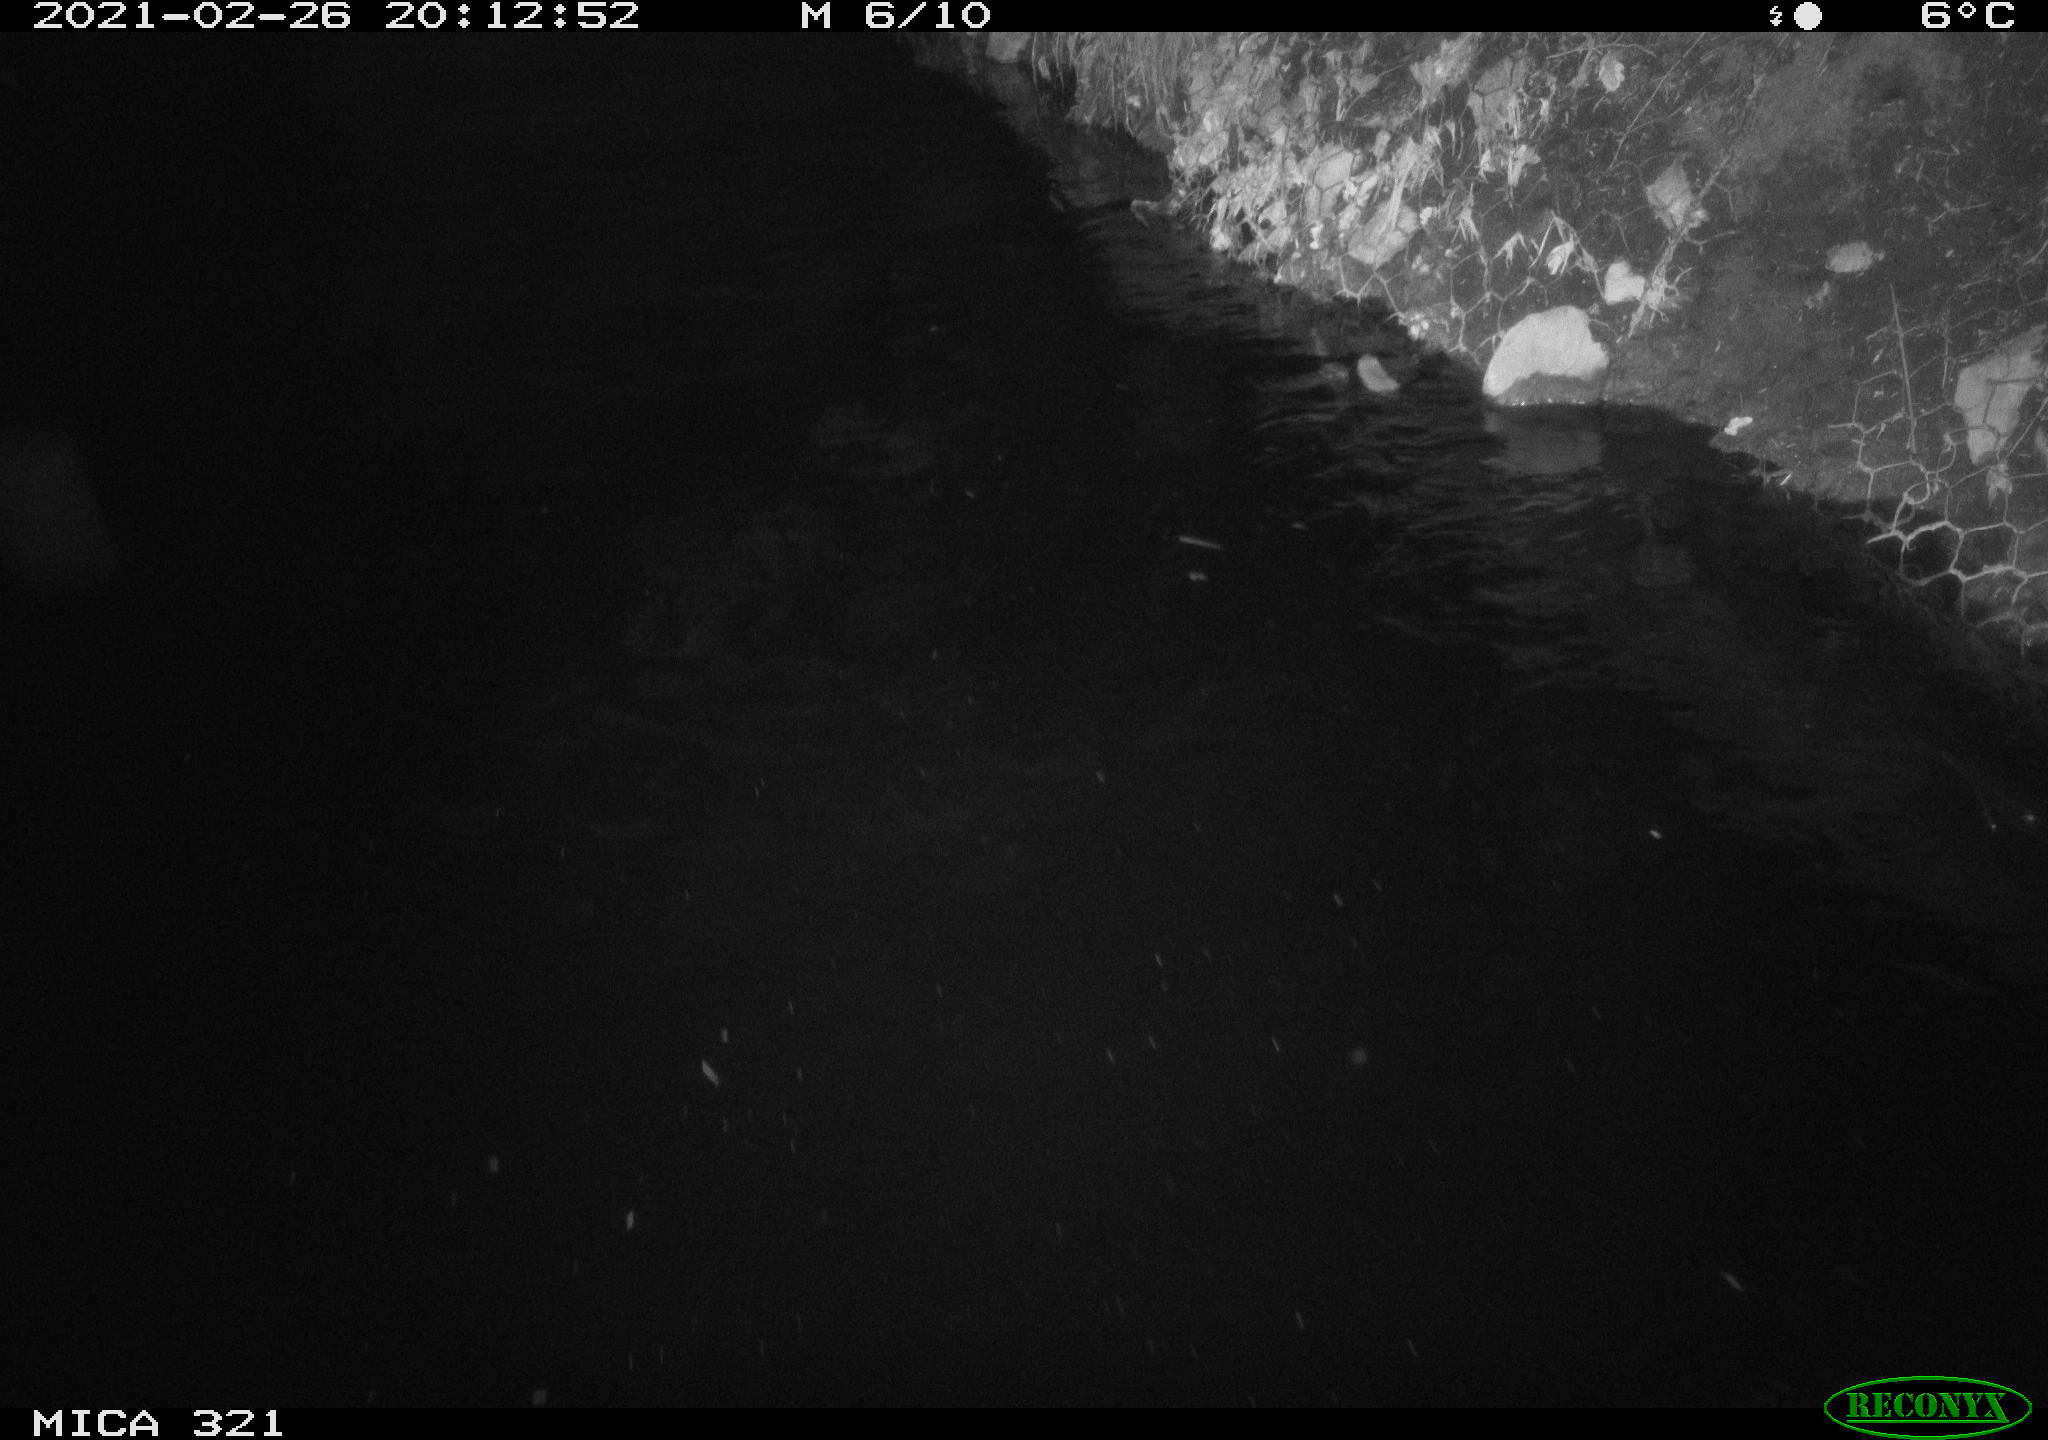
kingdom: Animalia
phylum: Chordata
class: Mammalia
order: Rodentia
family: Muridae
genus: Rattus
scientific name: Rattus norvegicus
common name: Brown rat
